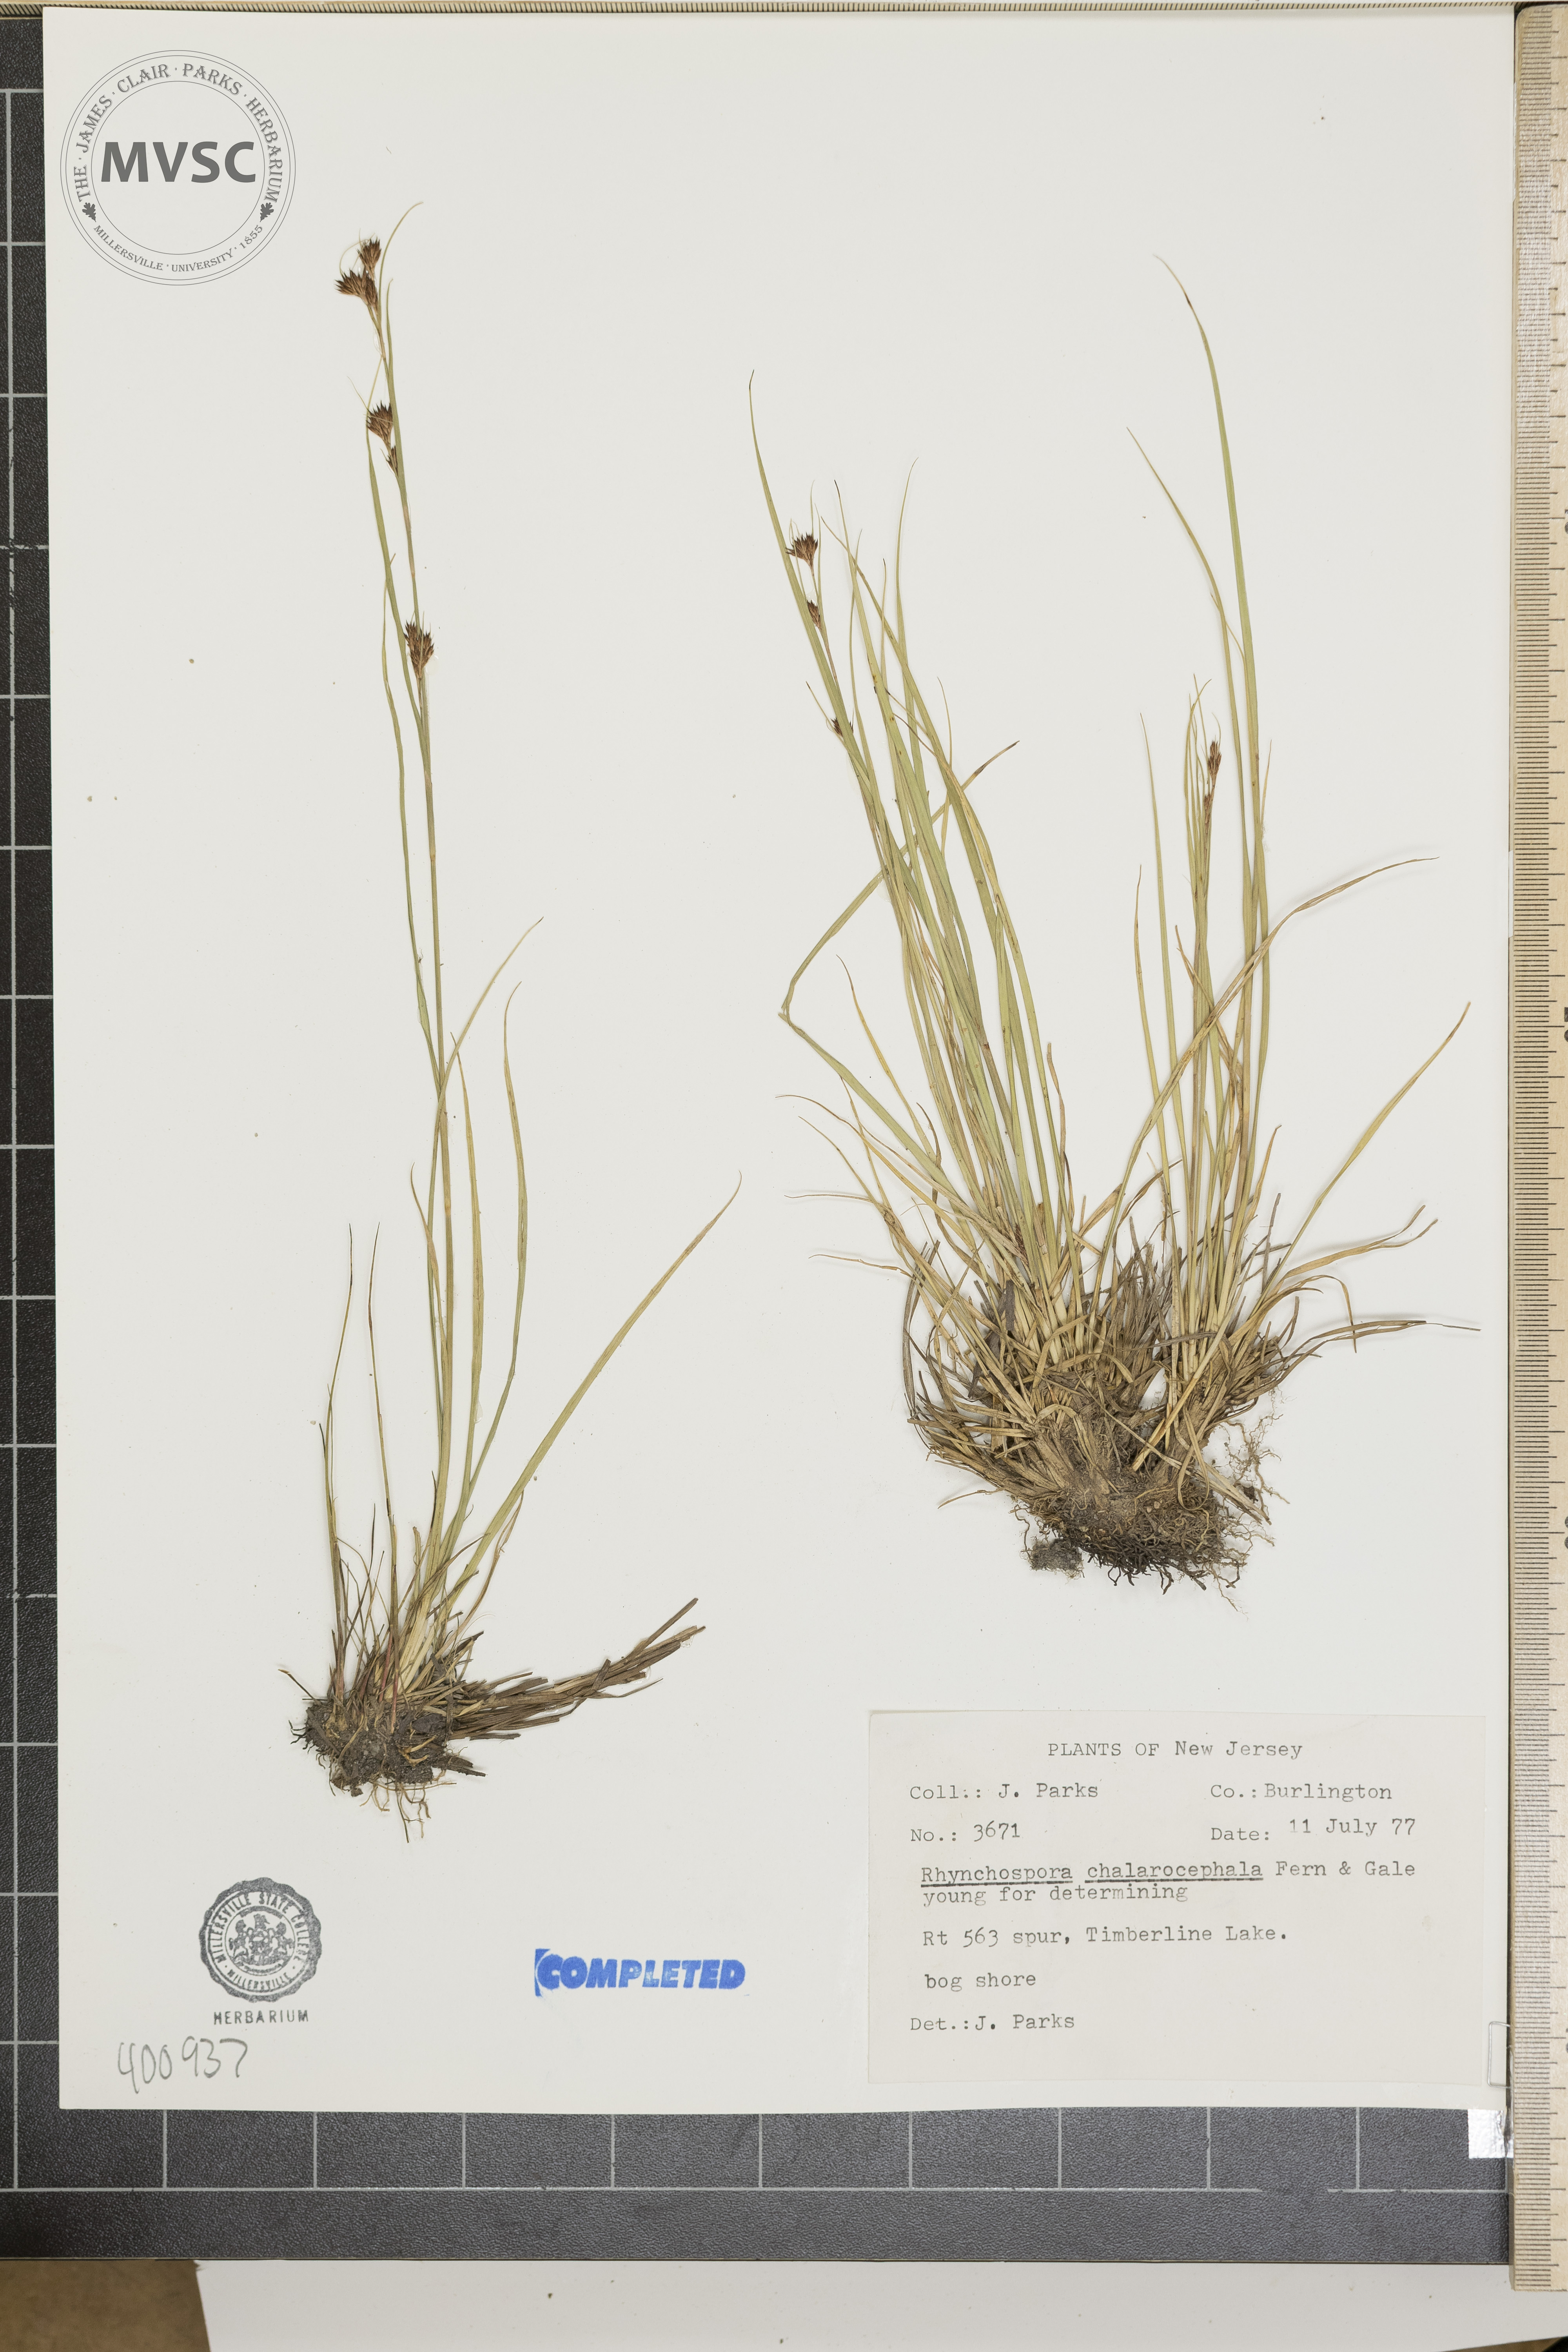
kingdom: Plantae
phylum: Tracheophyta
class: Liliopsida
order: Poales
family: Cyperaceae
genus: Rhynchospora
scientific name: Rhynchospora chalarocephala
